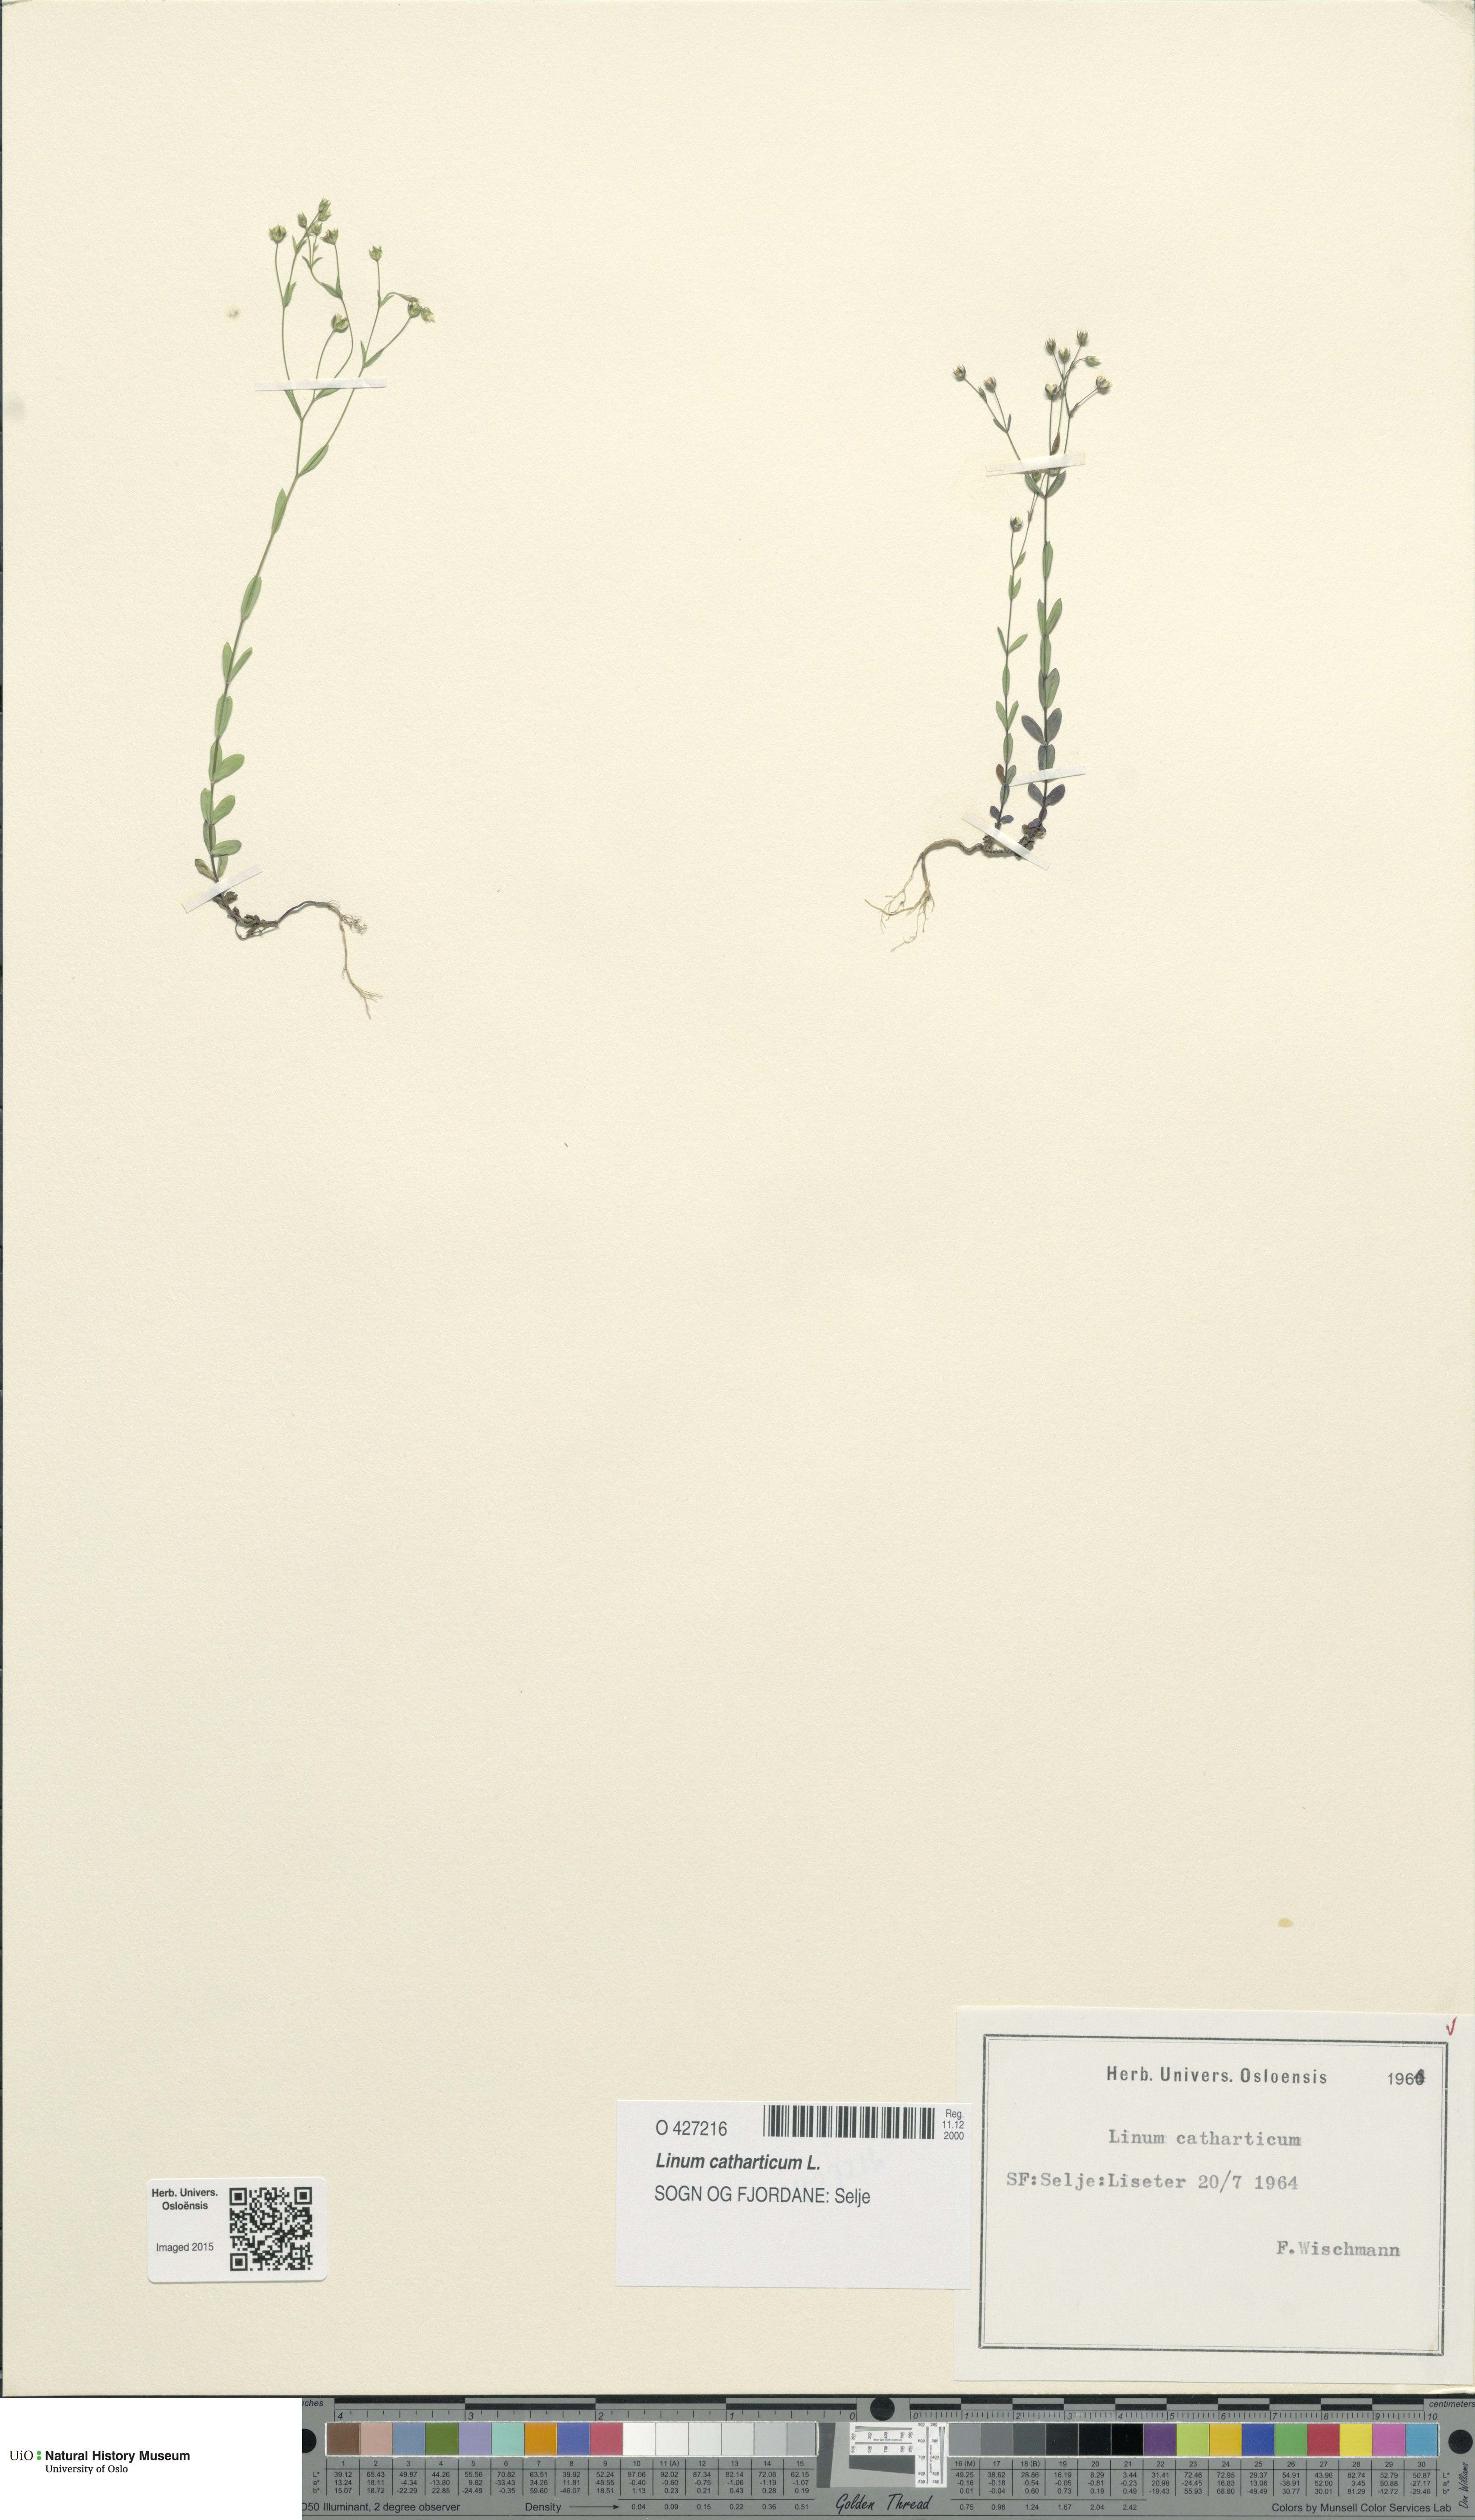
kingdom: Plantae
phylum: Tracheophyta
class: Magnoliopsida
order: Malpighiales
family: Linaceae
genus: Linum
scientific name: Linum catharticum
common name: Fairy flax
